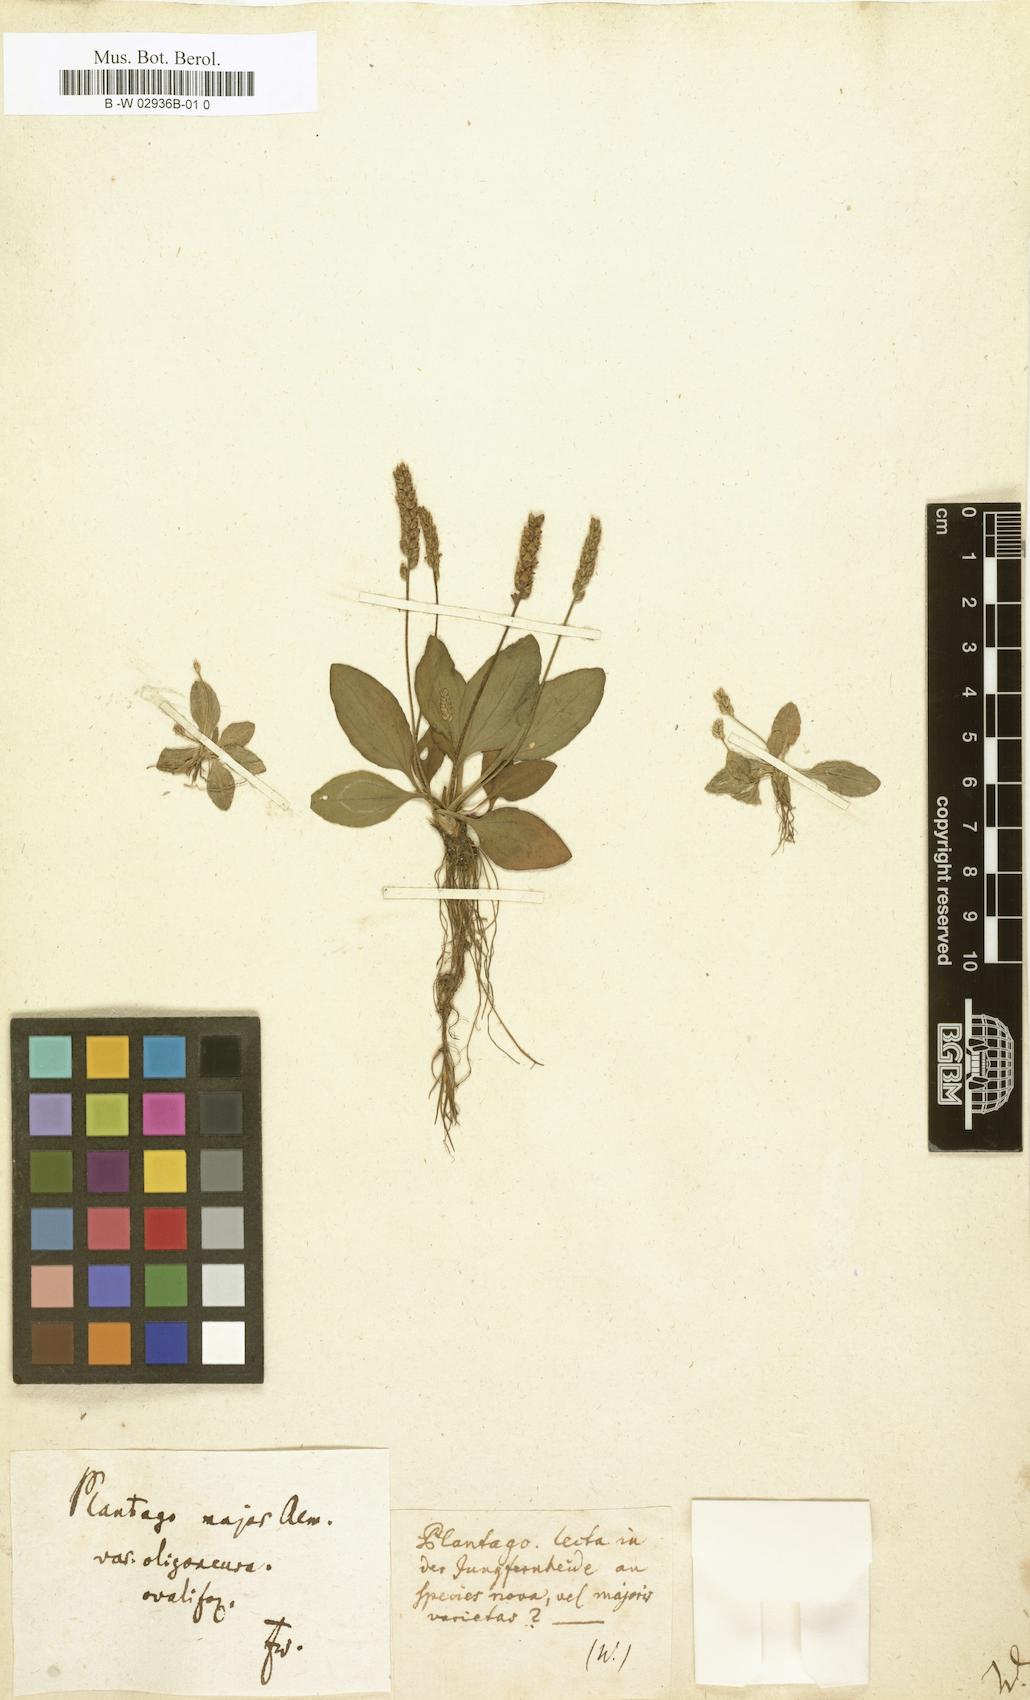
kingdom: Plantae
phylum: Tracheophyta
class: Magnoliopsida
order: Lamiales
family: Plantaginaceae
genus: Plantago
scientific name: Plantago major
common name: Common plantain
